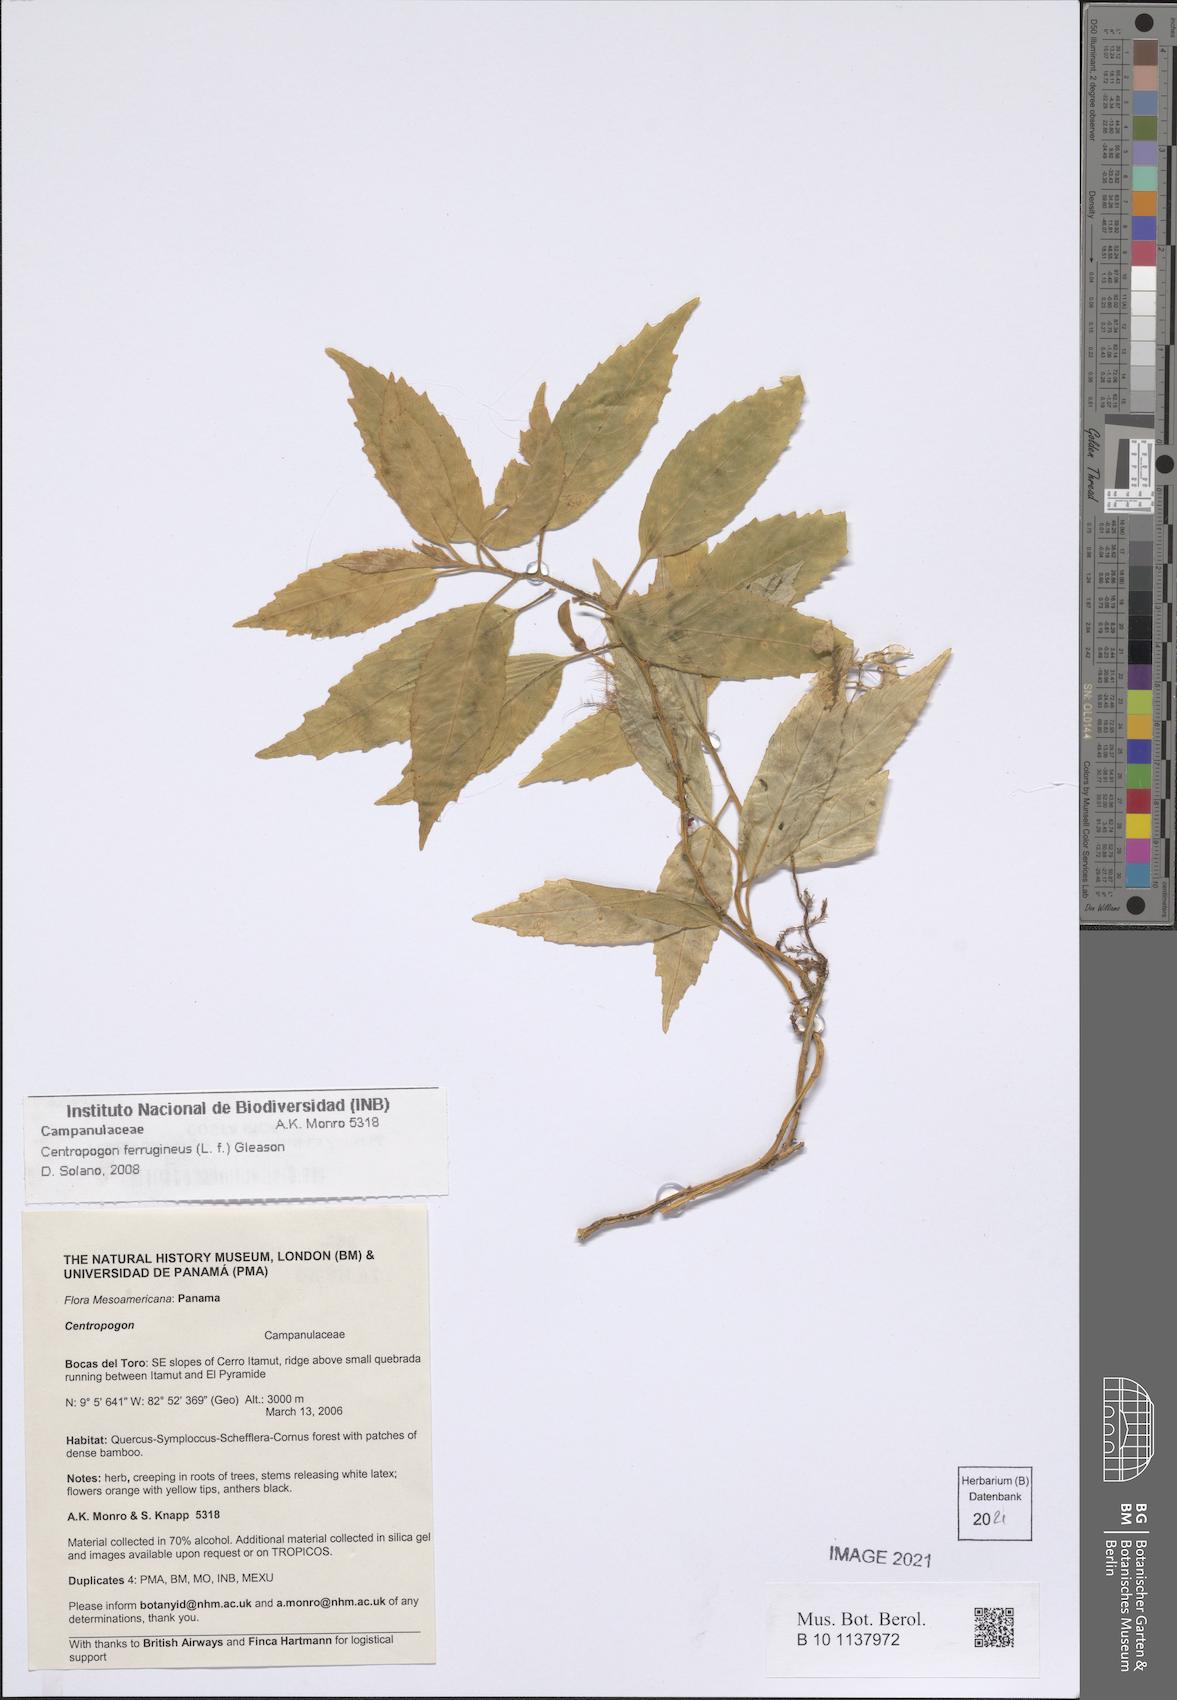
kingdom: Plantae
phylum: Tracheophyta
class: Magnoliopsida
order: Asterales
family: Campanulaceae
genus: Centropogon
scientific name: Centropogon ferrugineus
